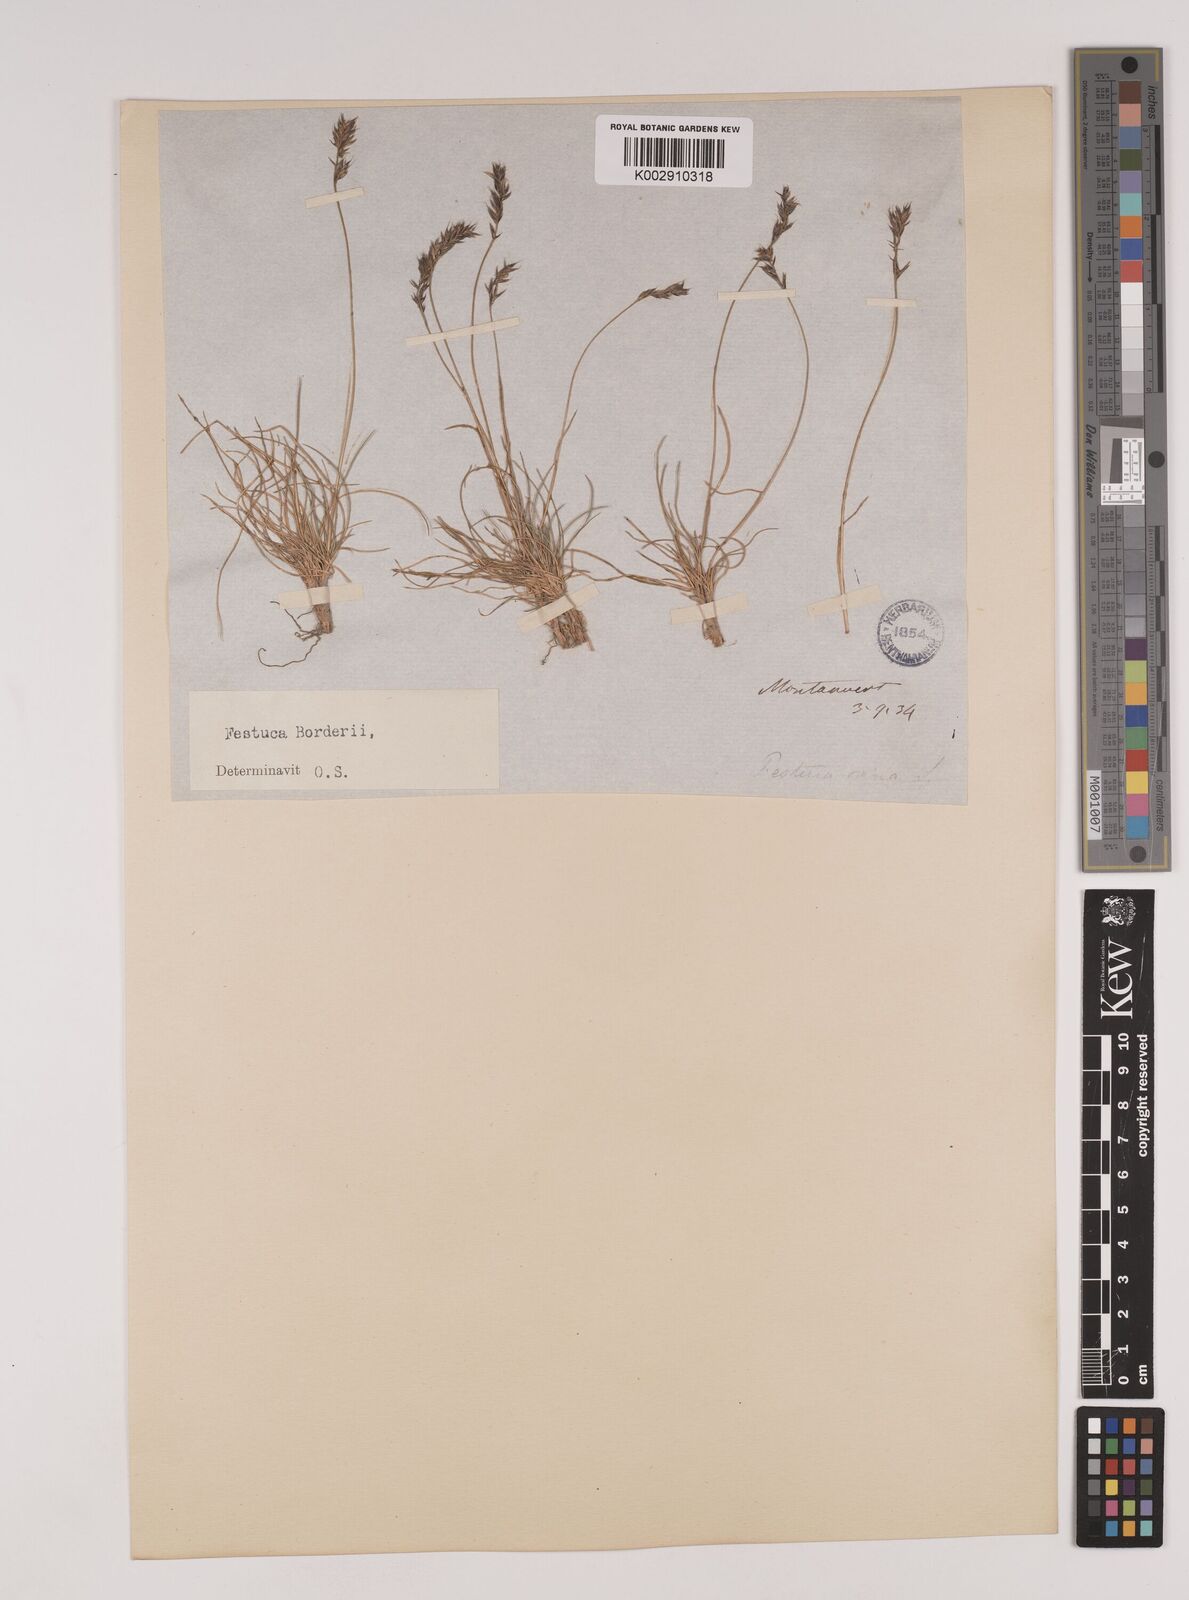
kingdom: Plantae
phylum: Tracheophyta
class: Liliopsida
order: Poales
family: Poaceae
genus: Festuca
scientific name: Festuca borderei
